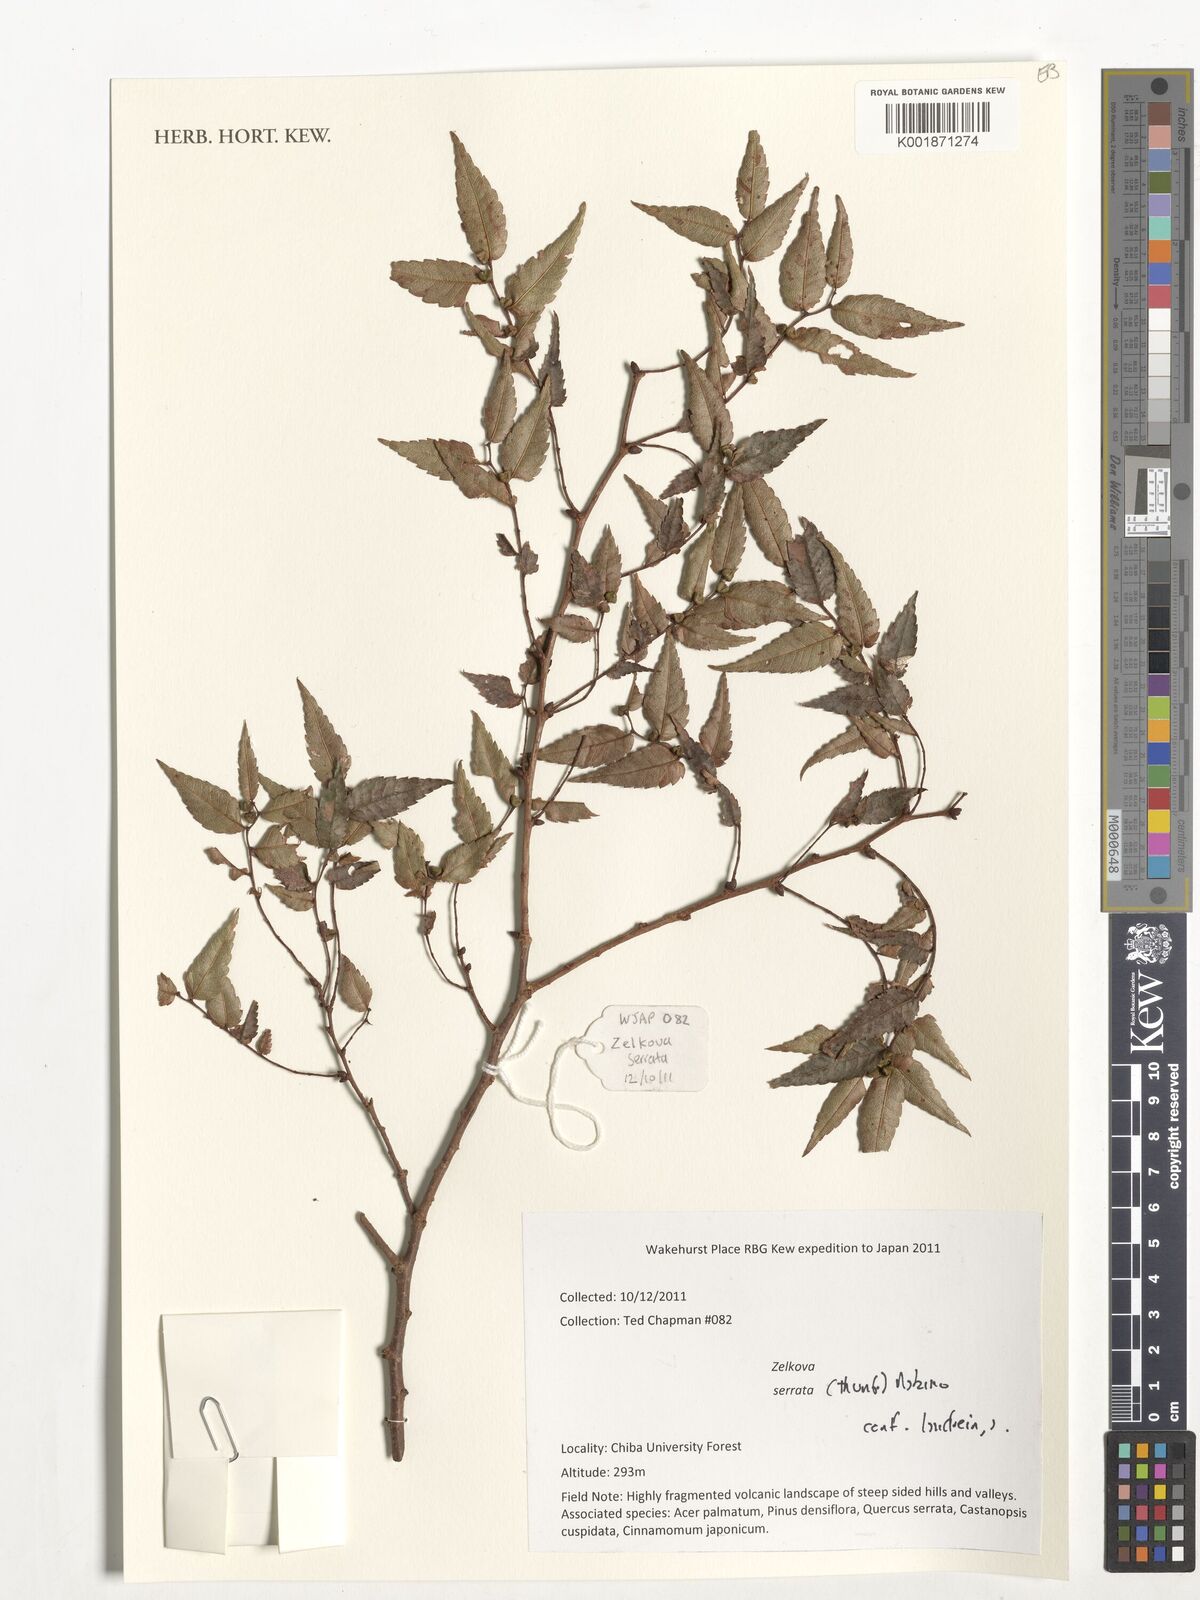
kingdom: Plantae
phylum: Tracheophyta
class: Magnoliopsida
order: Rosales
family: Ulmaceae
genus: Zelkova
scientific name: Zelkova serrata
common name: Japanese zelkova
